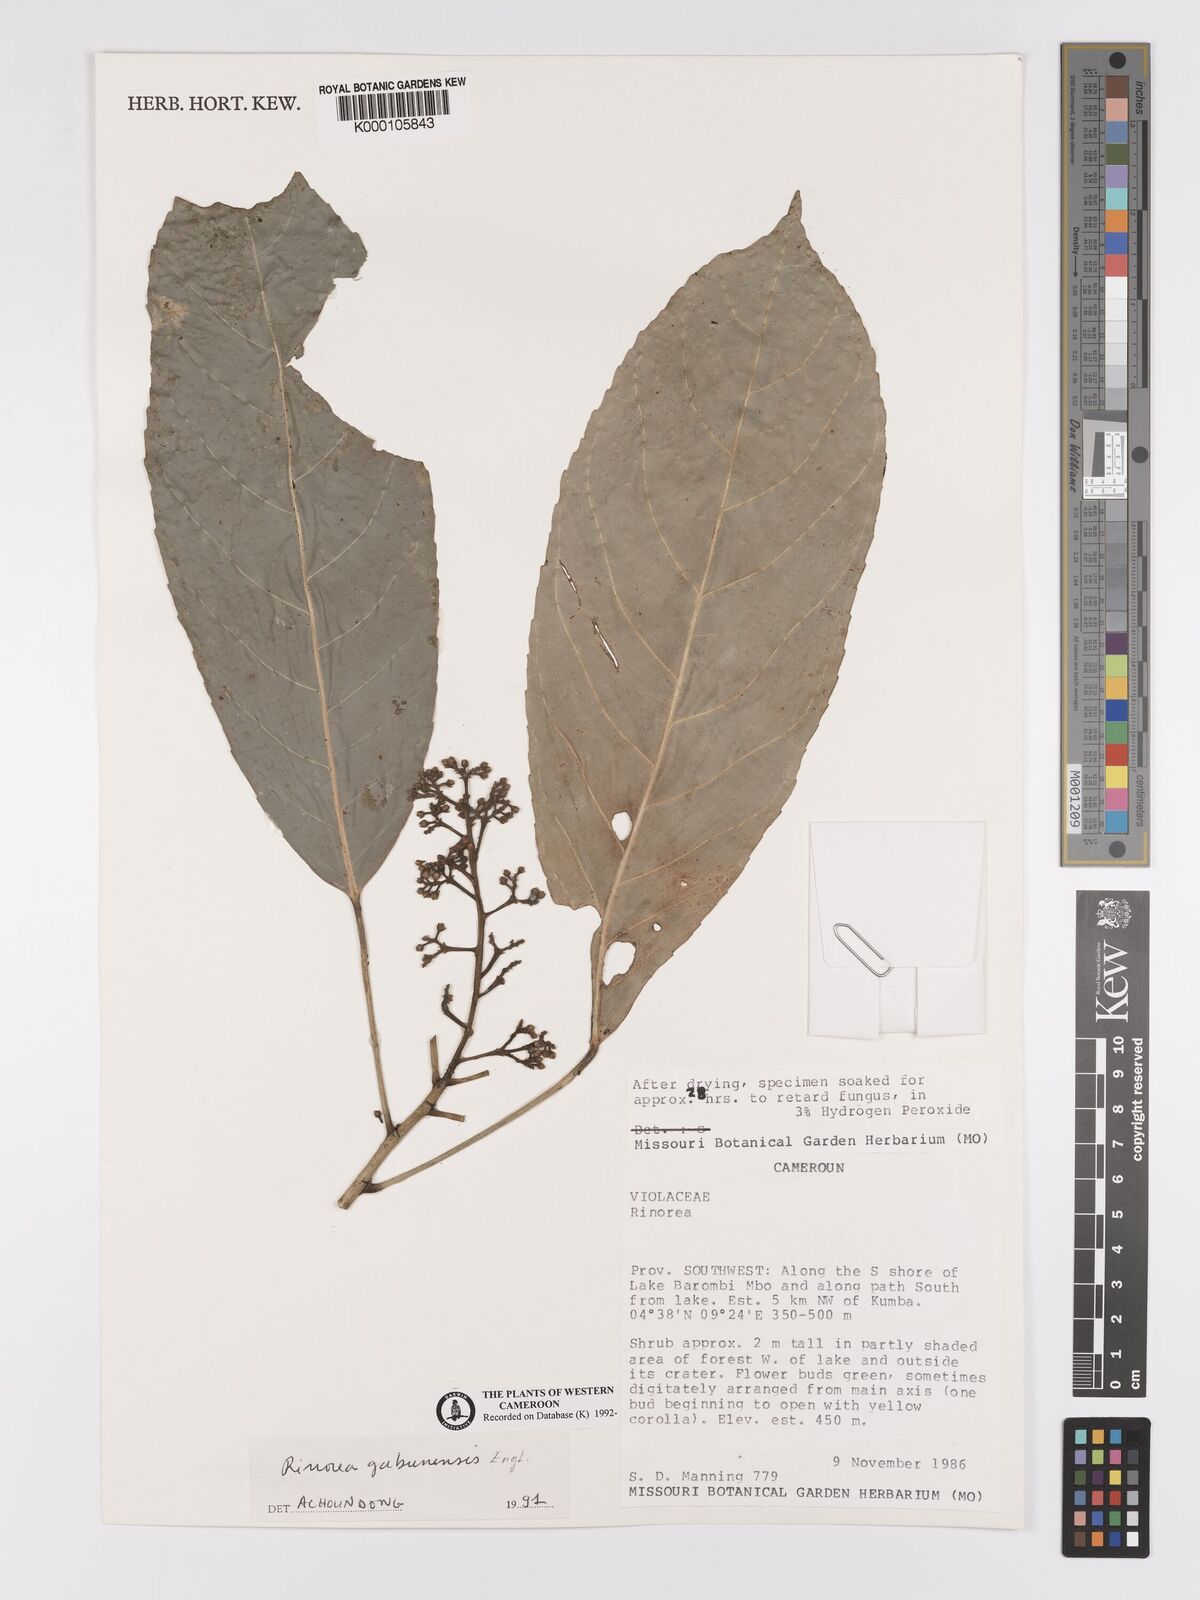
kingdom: Plantae
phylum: Tracheophyta
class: Magnoliopsida
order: Malpighiales
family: Violaceae
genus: Rinorea
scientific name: Rinorea gabunensis
